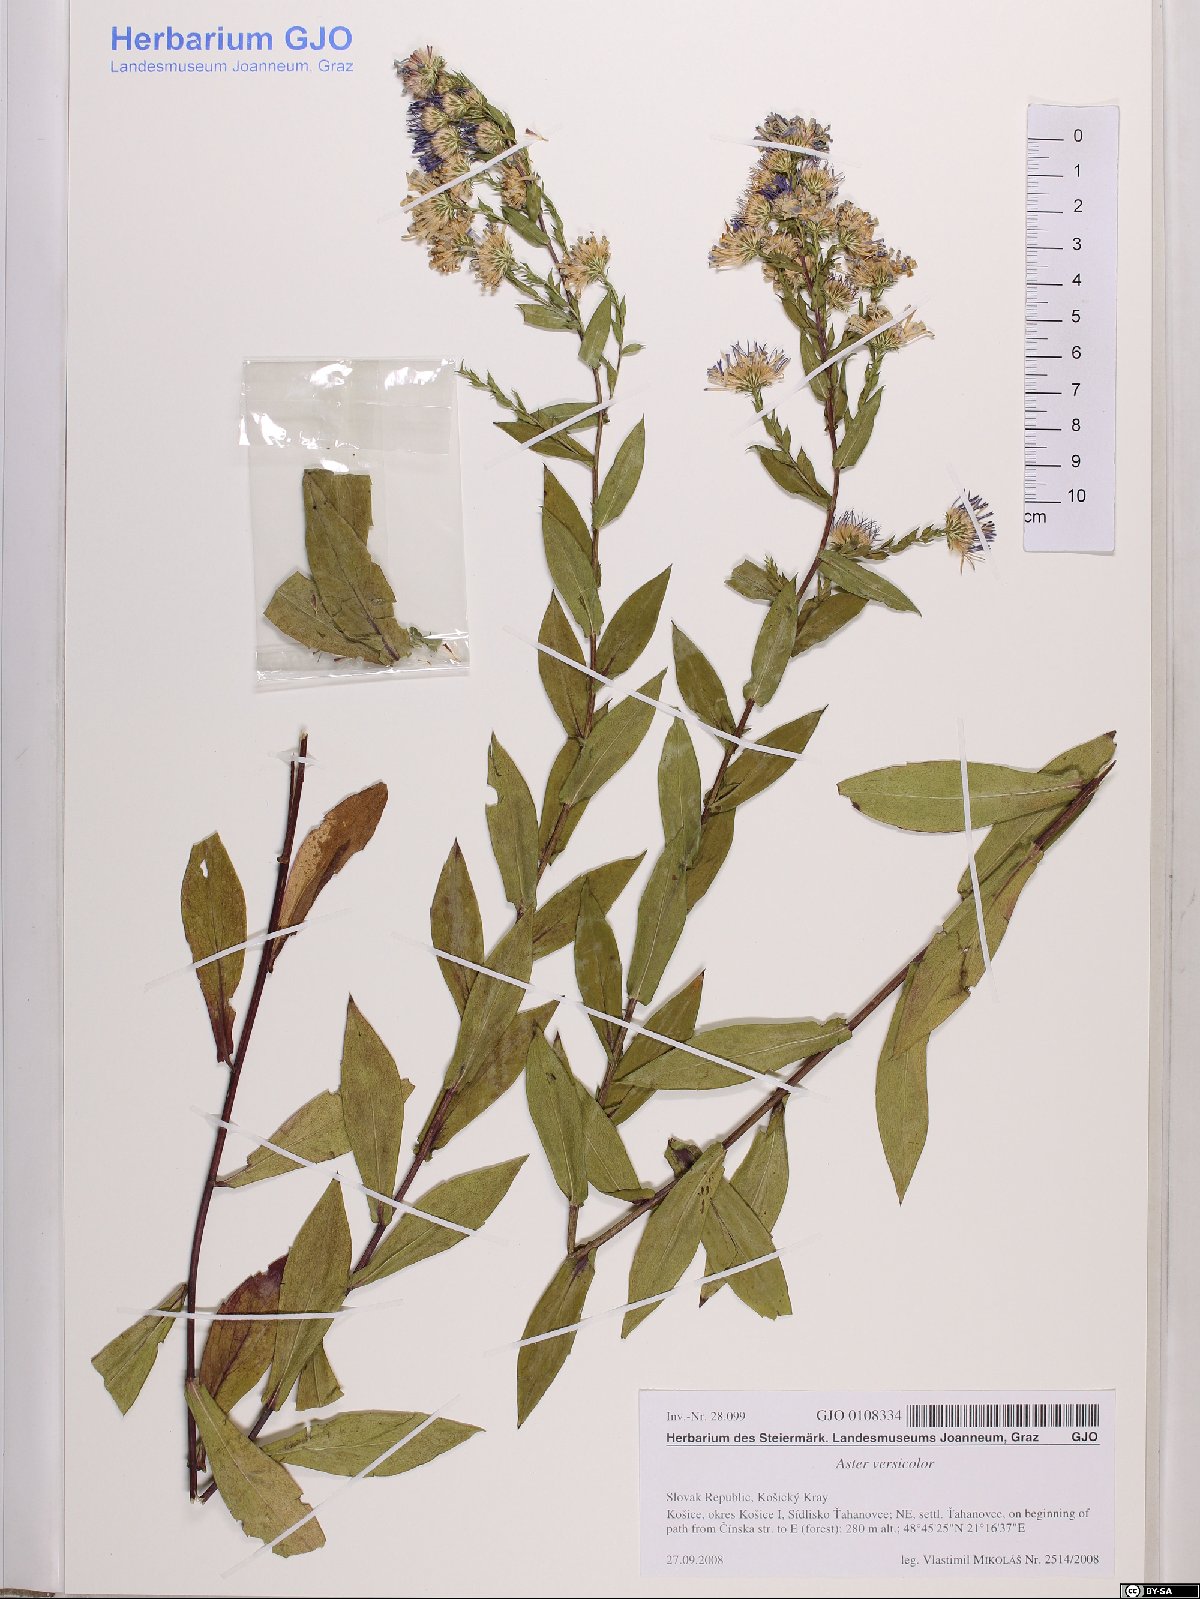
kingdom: Plantae
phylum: Tracheophyta
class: Magnoliopsida
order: Asterales
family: Asteraceae
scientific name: Asteraceae
